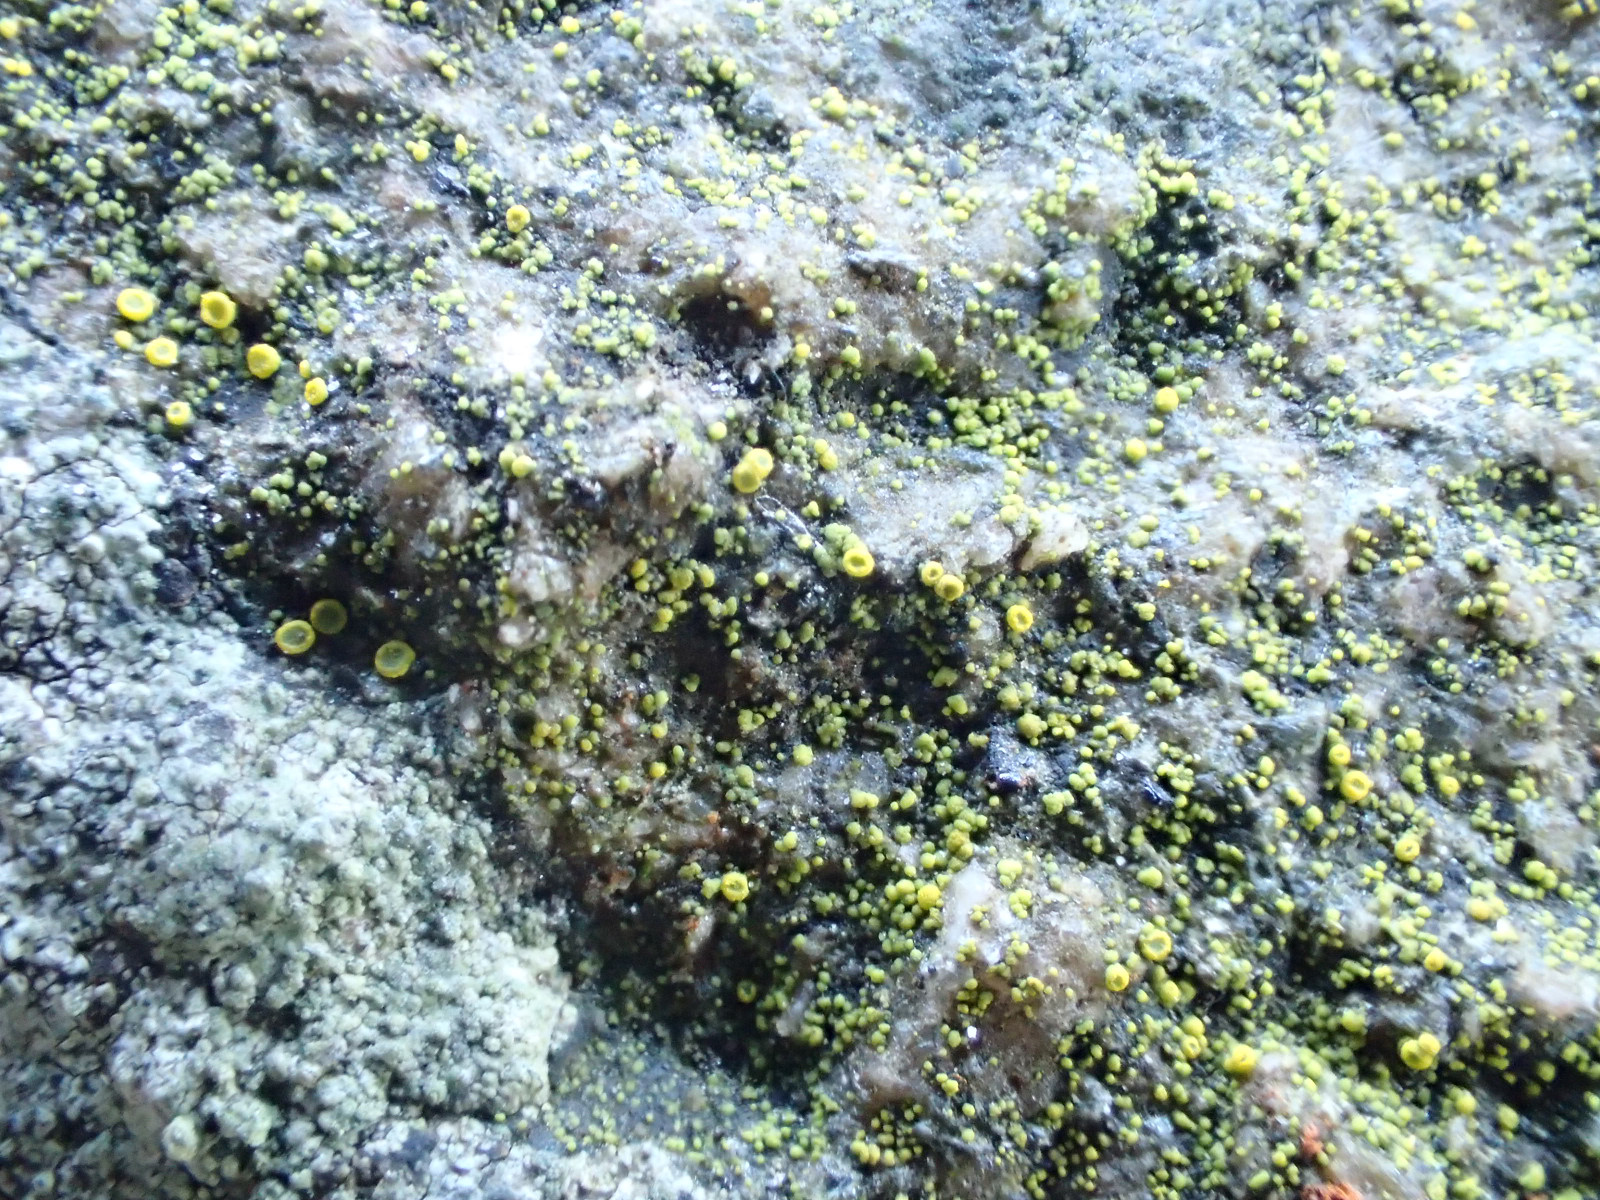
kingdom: Fungi
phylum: Ascomycota
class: Candelariomycetes
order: Candelariales
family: Candelariaceae
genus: Candelariella
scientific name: Candelariella aurella
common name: liden æggeblommelav
